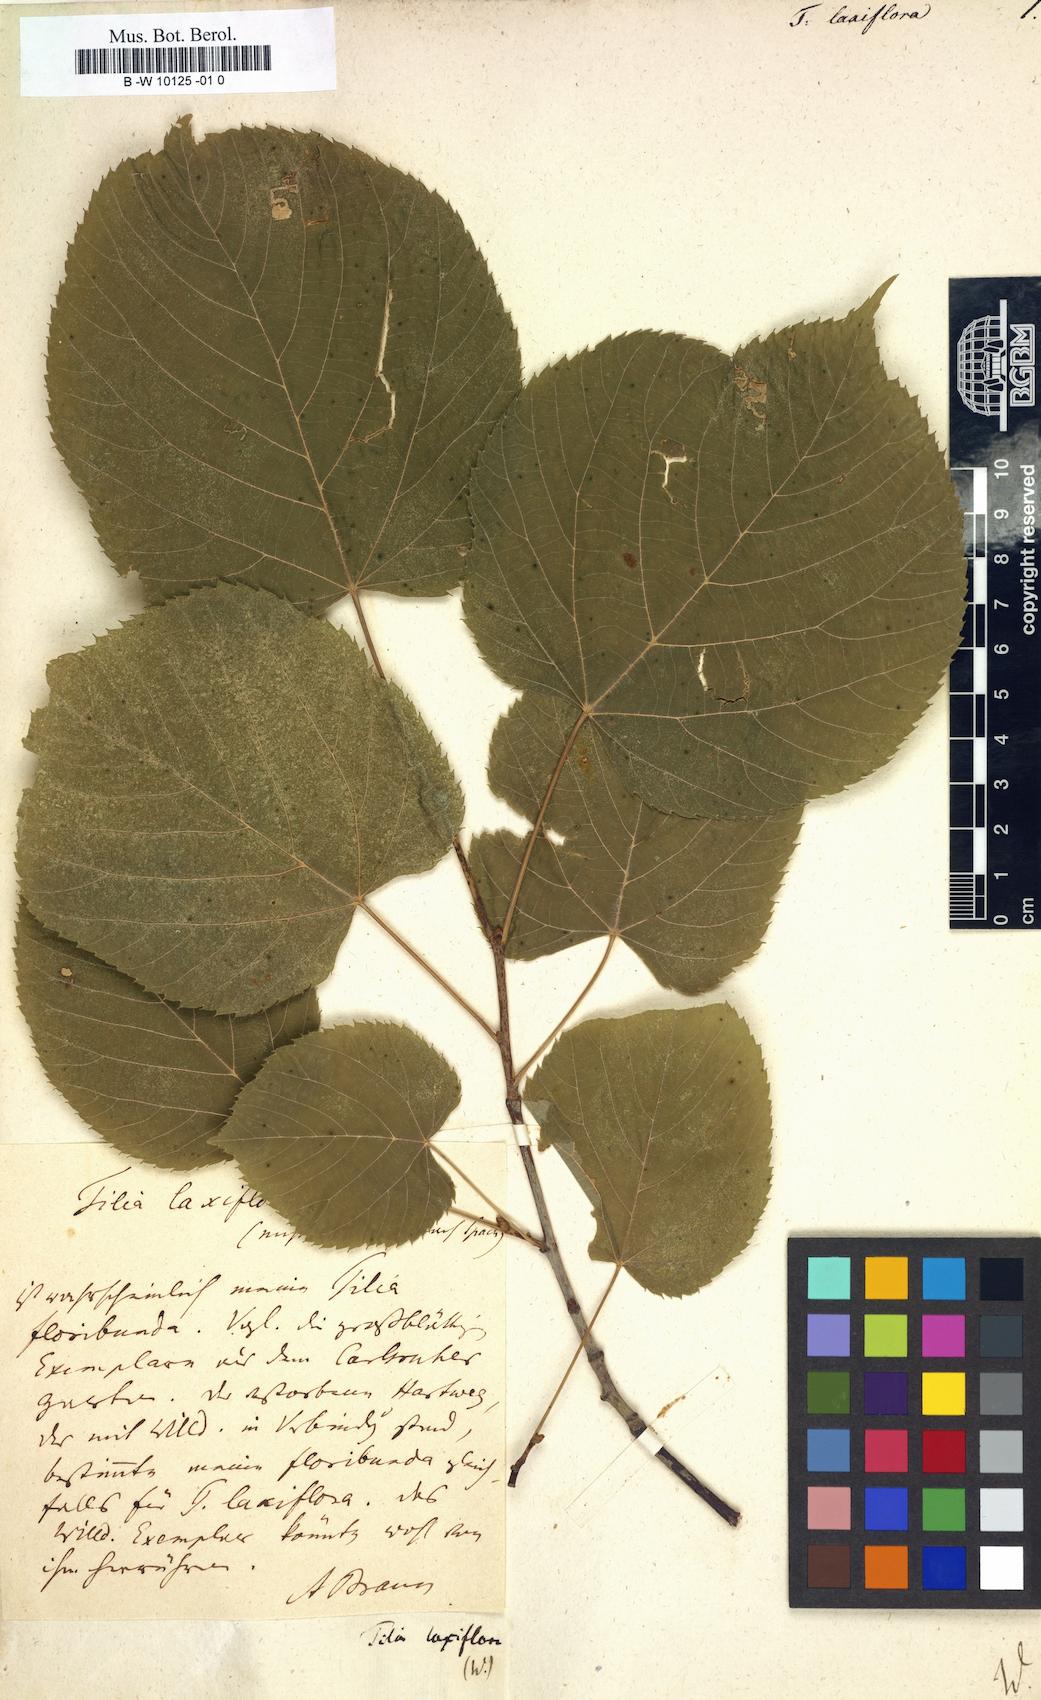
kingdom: Plantae
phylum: Tracheophyta
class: Magnoliopsida
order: Malvales
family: Malvaceae
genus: Tilia
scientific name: Tilia americana
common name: Basswood
